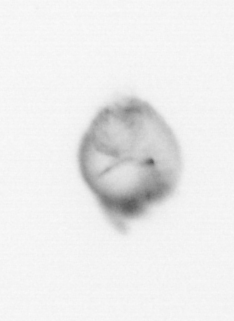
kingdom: Chromista
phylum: Myzozoa
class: Dinophyceae
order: Noctilucales
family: Noctilucaceae
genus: Noctiluca
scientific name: Noctiluca scintillans
